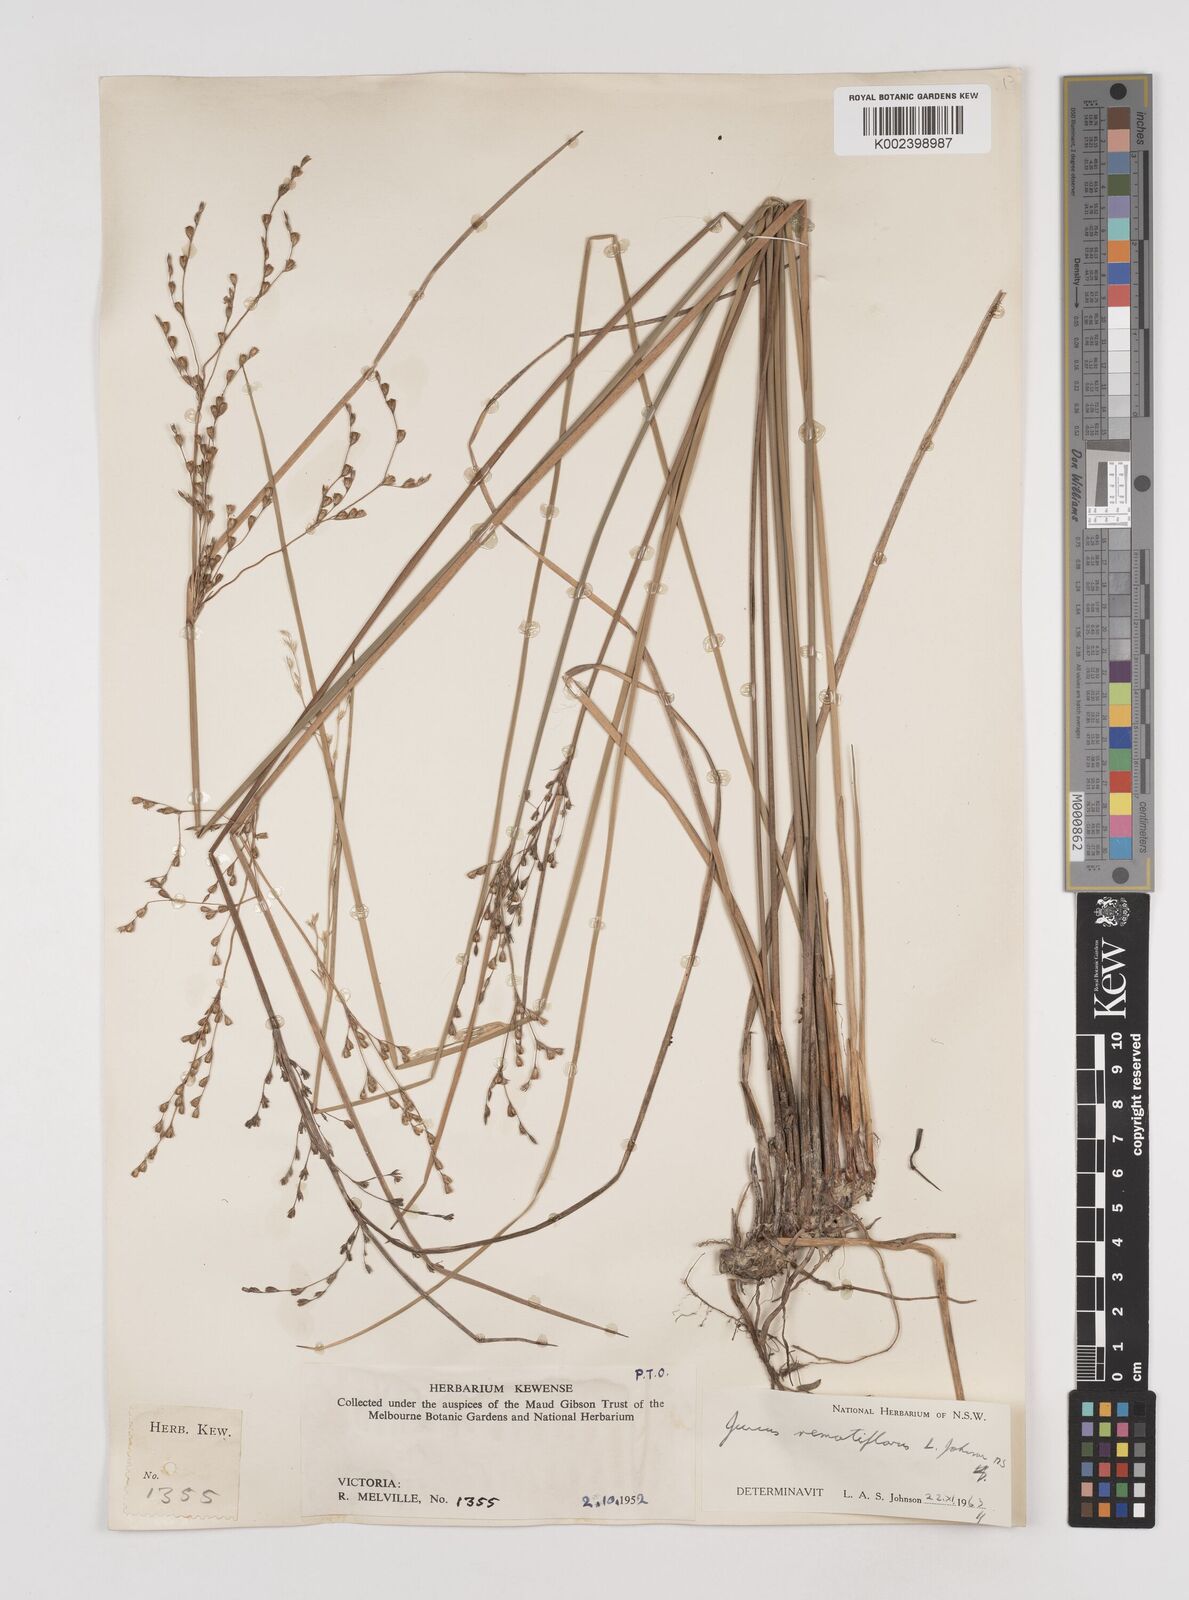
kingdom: Plantae
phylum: Tracheophyta
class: Liliopsida
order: Poales
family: Juncaceae
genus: Juncus
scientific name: Juncus remotiflorus
